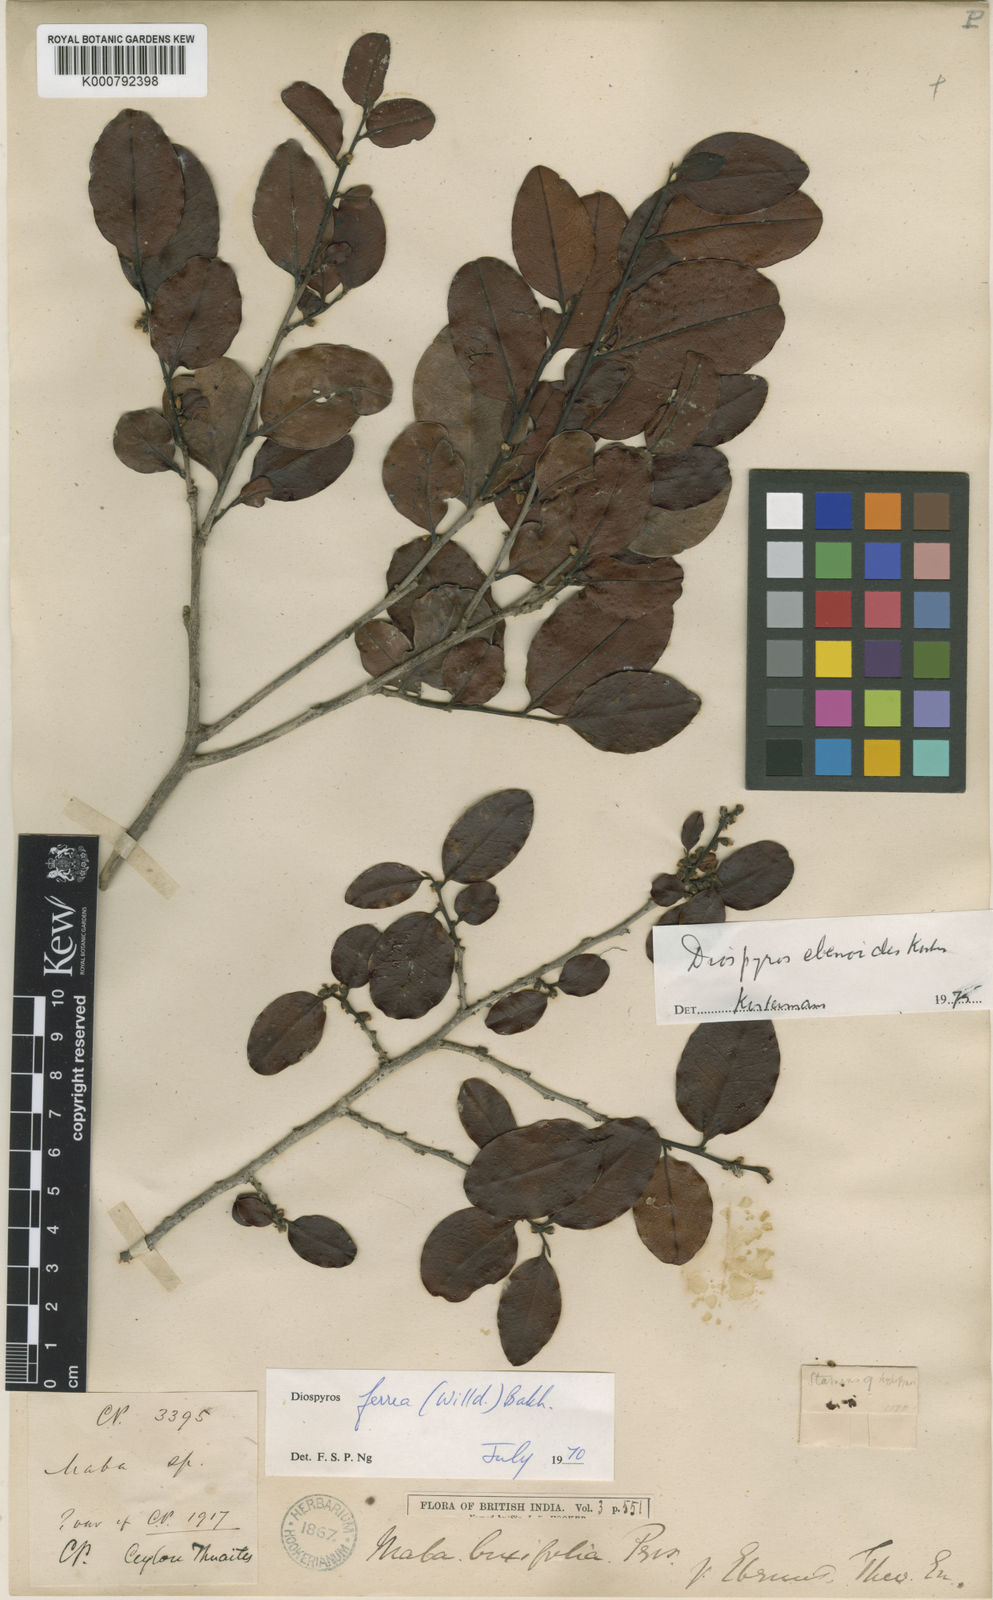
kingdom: Plantae
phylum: Tracheophyta
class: Magnoliopsida
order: Ericales
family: Ebenaceae
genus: Diospyros
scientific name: Diospyros buxifolia
